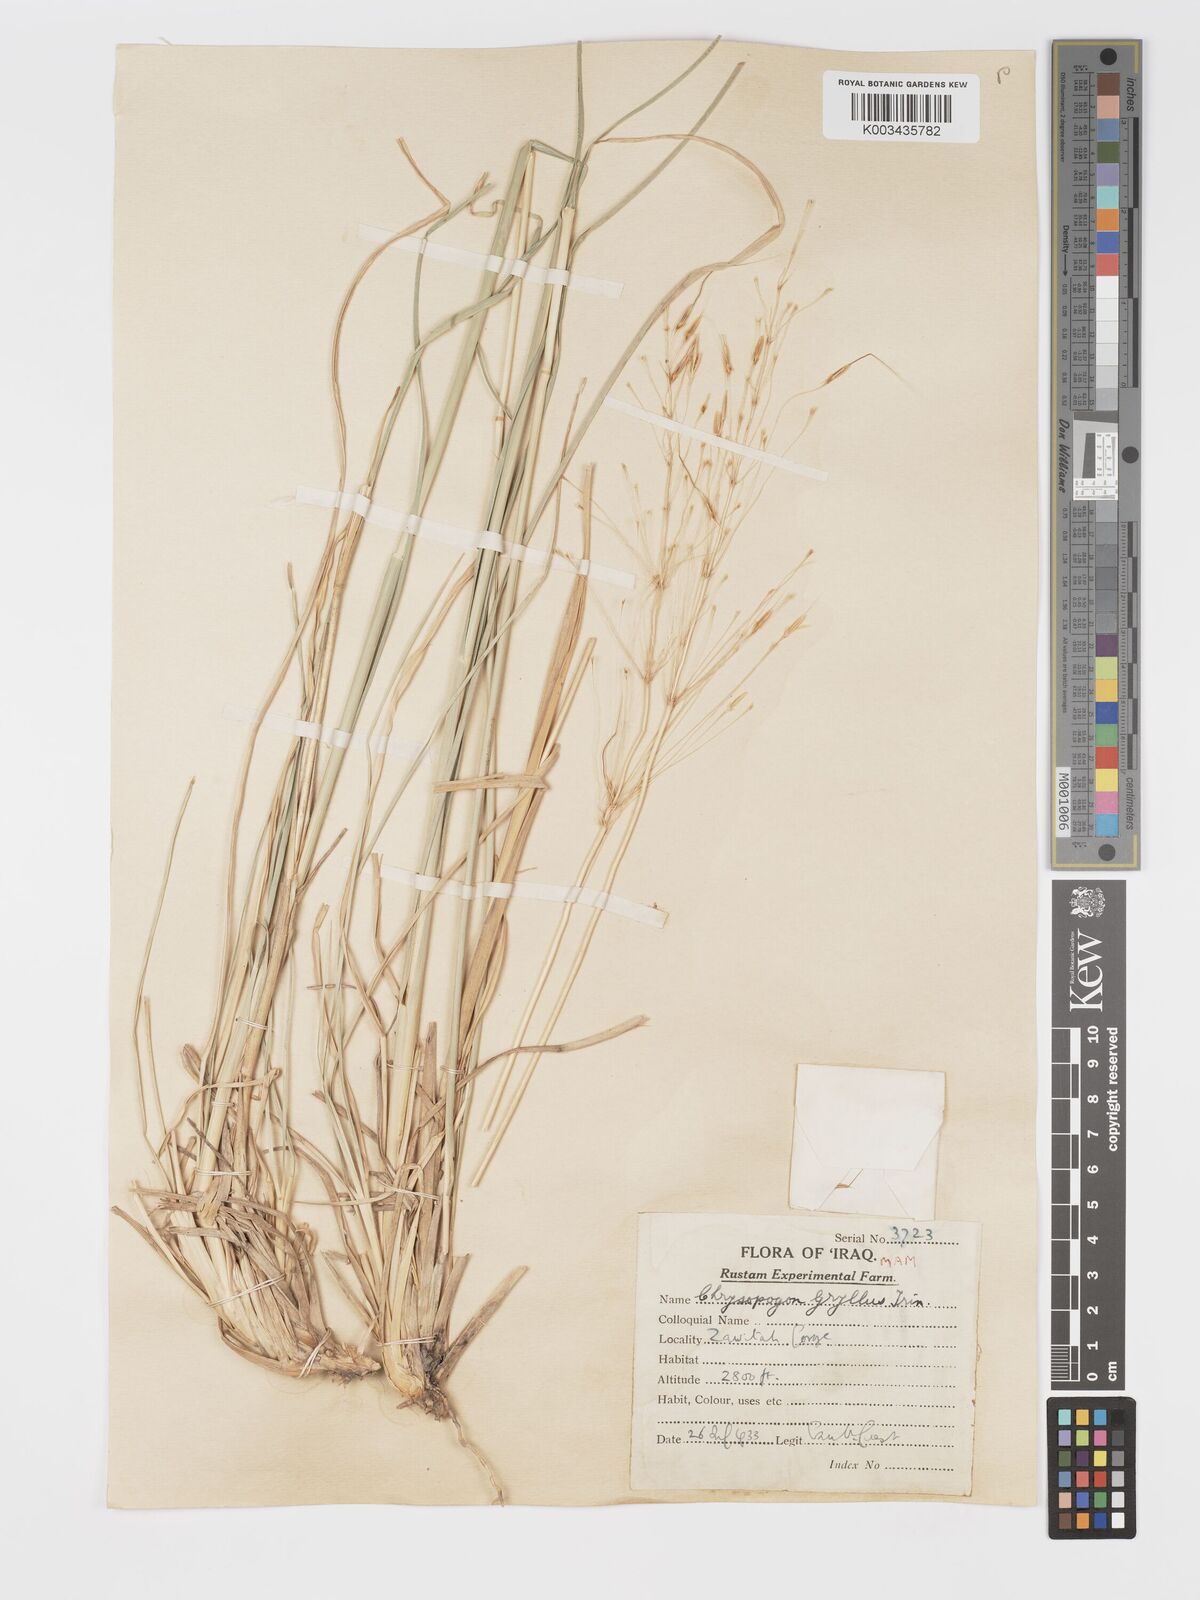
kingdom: Plantae
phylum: Tracheophyta
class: Liliopsida
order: Poales
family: Poaceae
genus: Chrysopogon
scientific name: Chrysopogon gryllus
